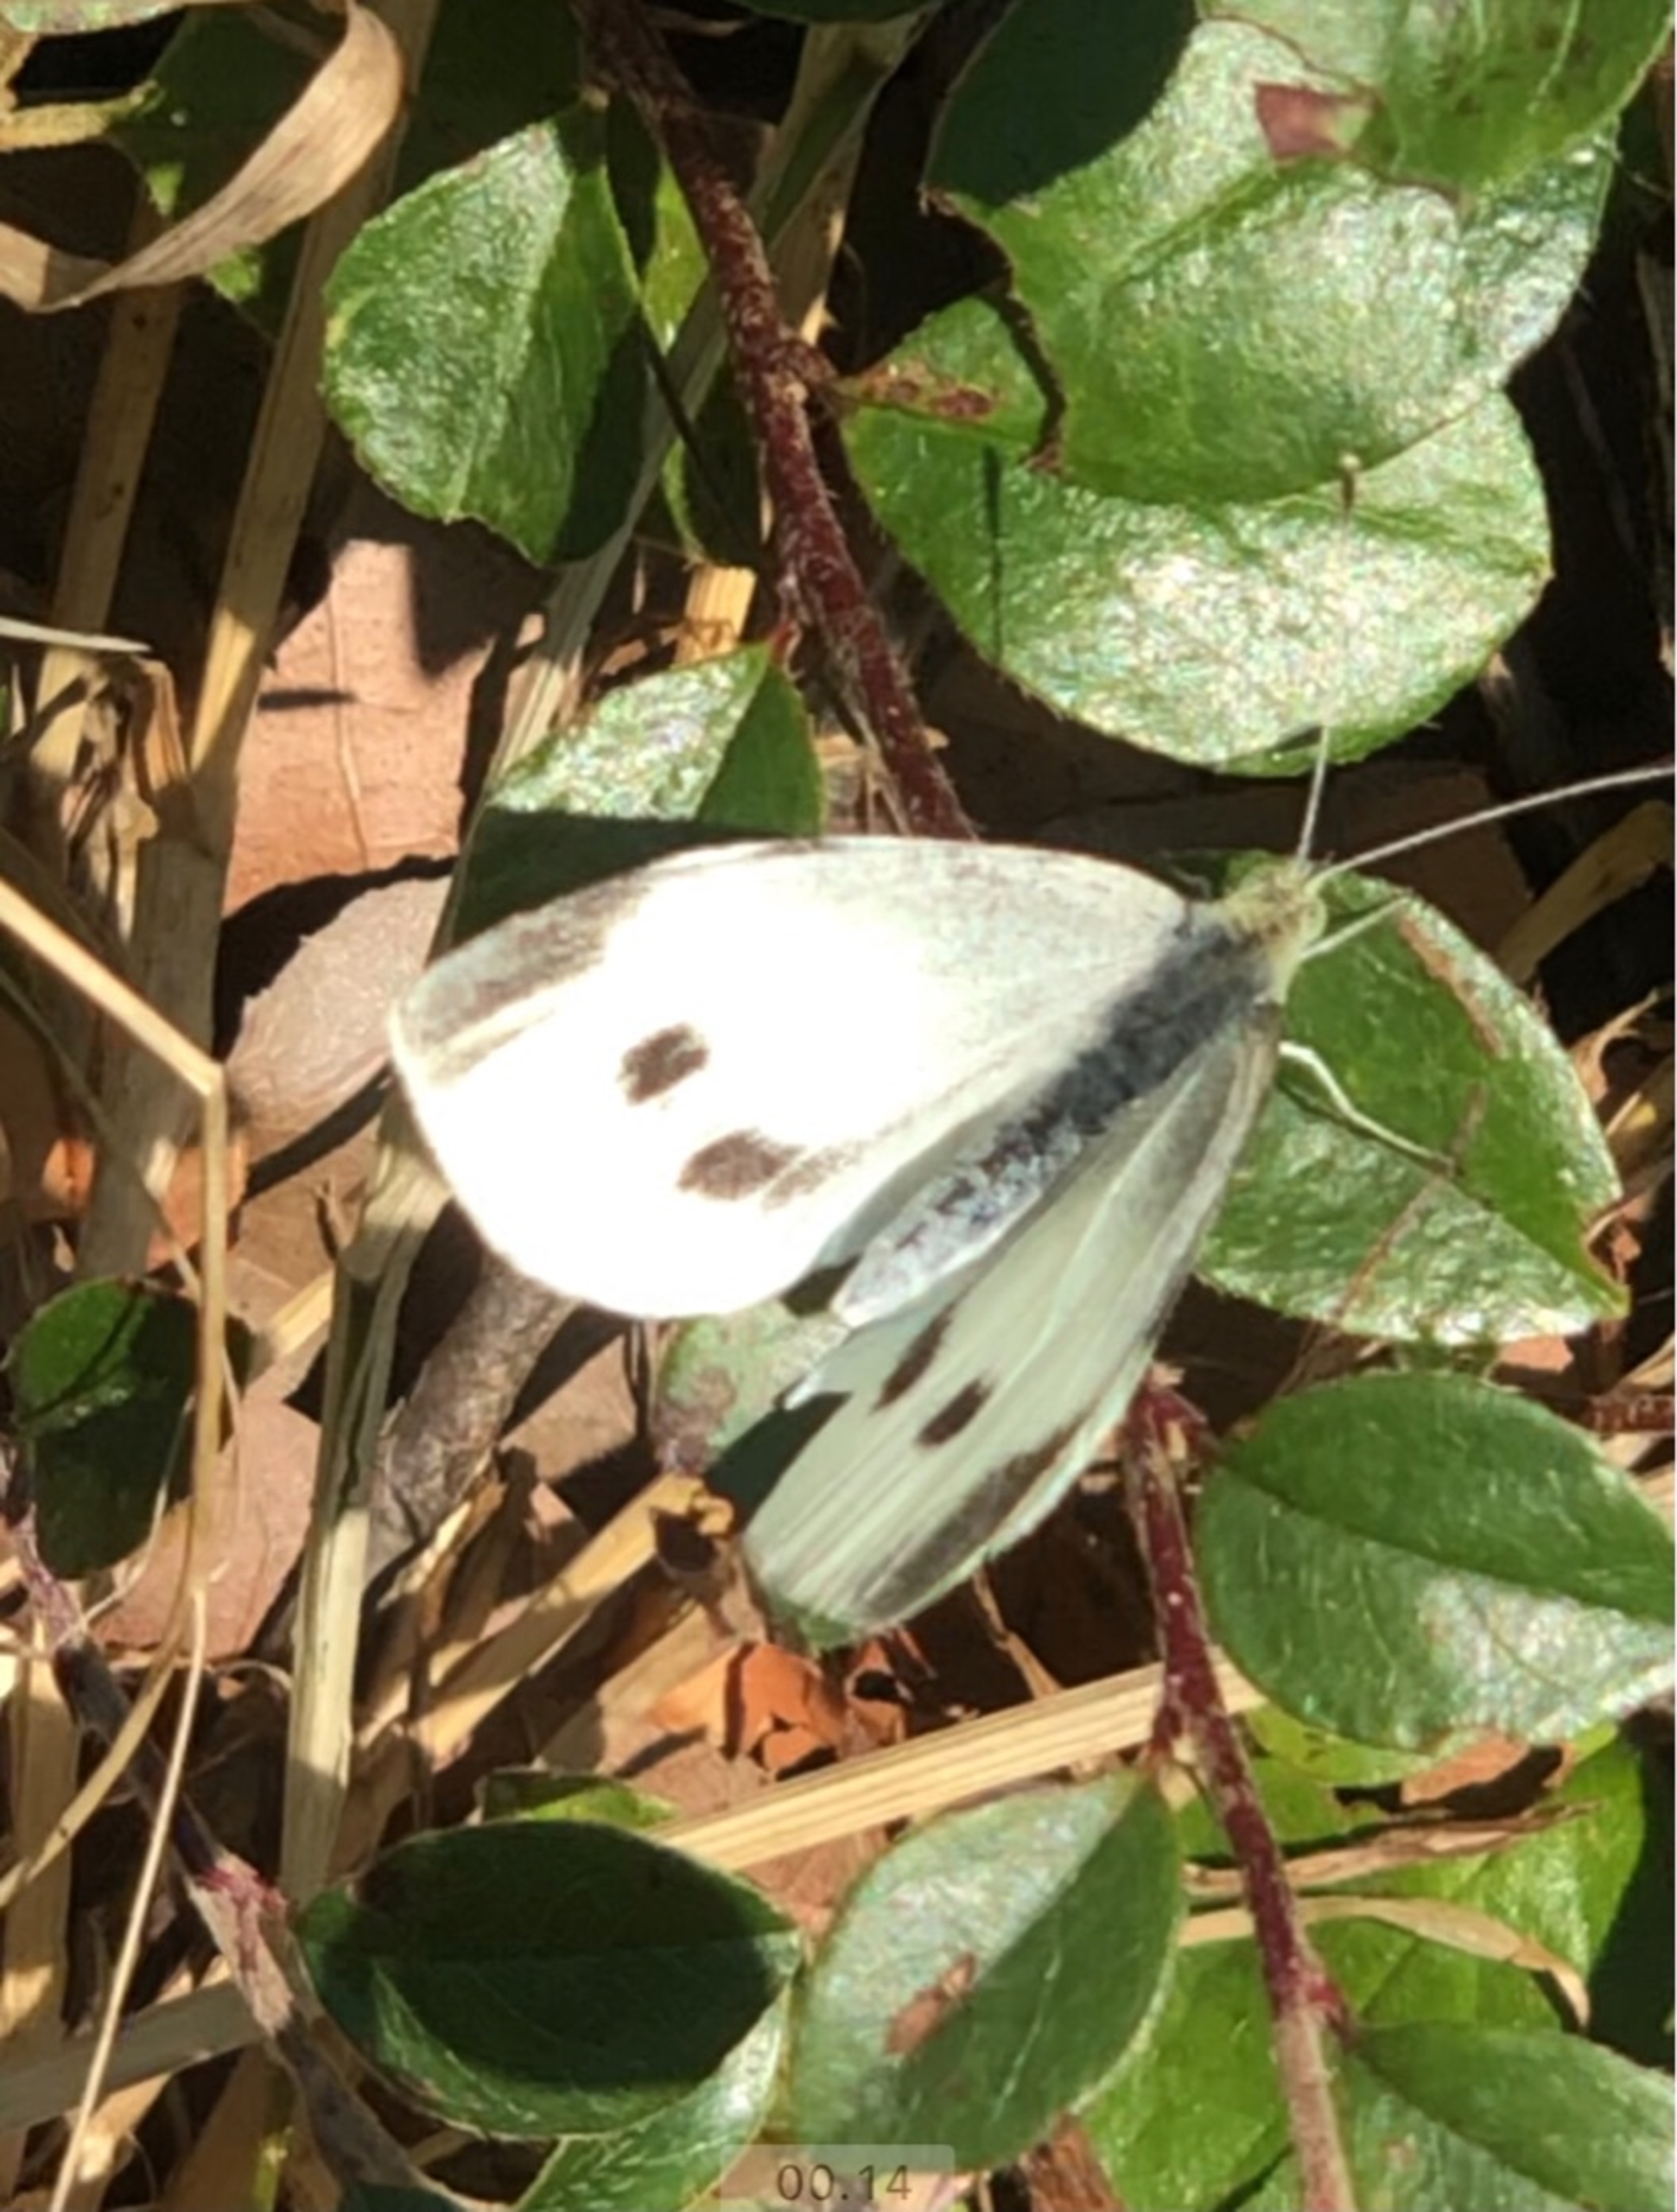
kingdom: Animalia
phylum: Arthropoda
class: Insecta
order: Lepidoptera
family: Pieridae
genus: Pieris
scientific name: Pieris brassicae
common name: Stor kålsommerfugl
